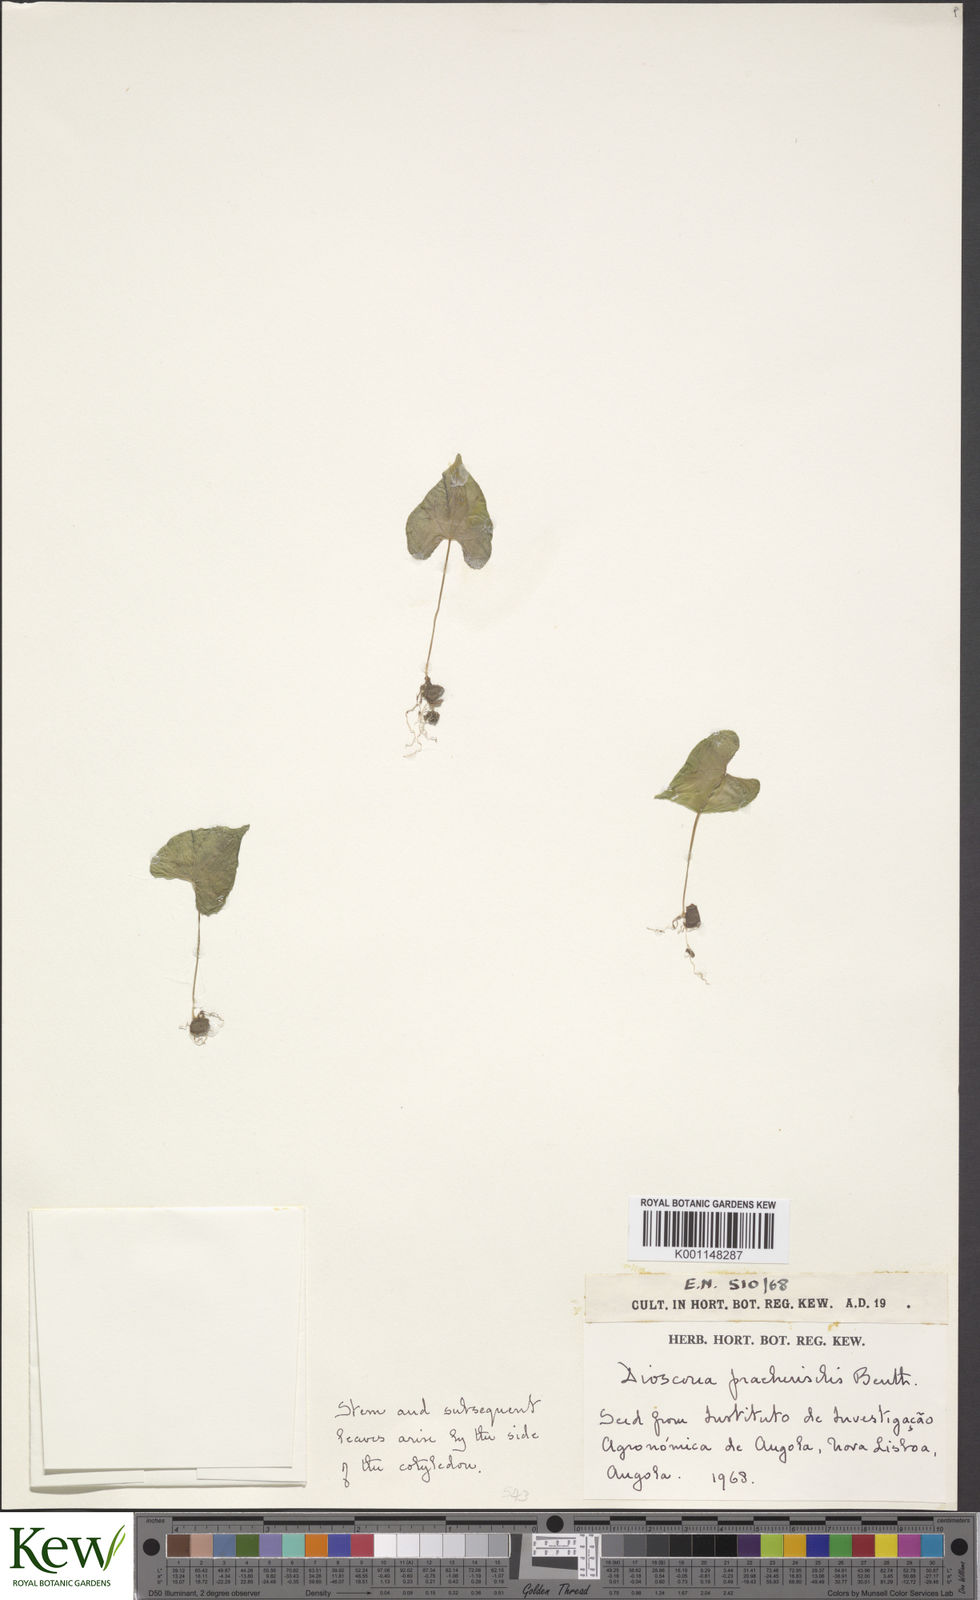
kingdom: Plantae
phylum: Tracheophyta
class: Liliopsida
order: Dioscoreales
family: Dioscoreaceae
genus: Dioscorea
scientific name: Dioscorea praehensilis
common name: Bush yam
